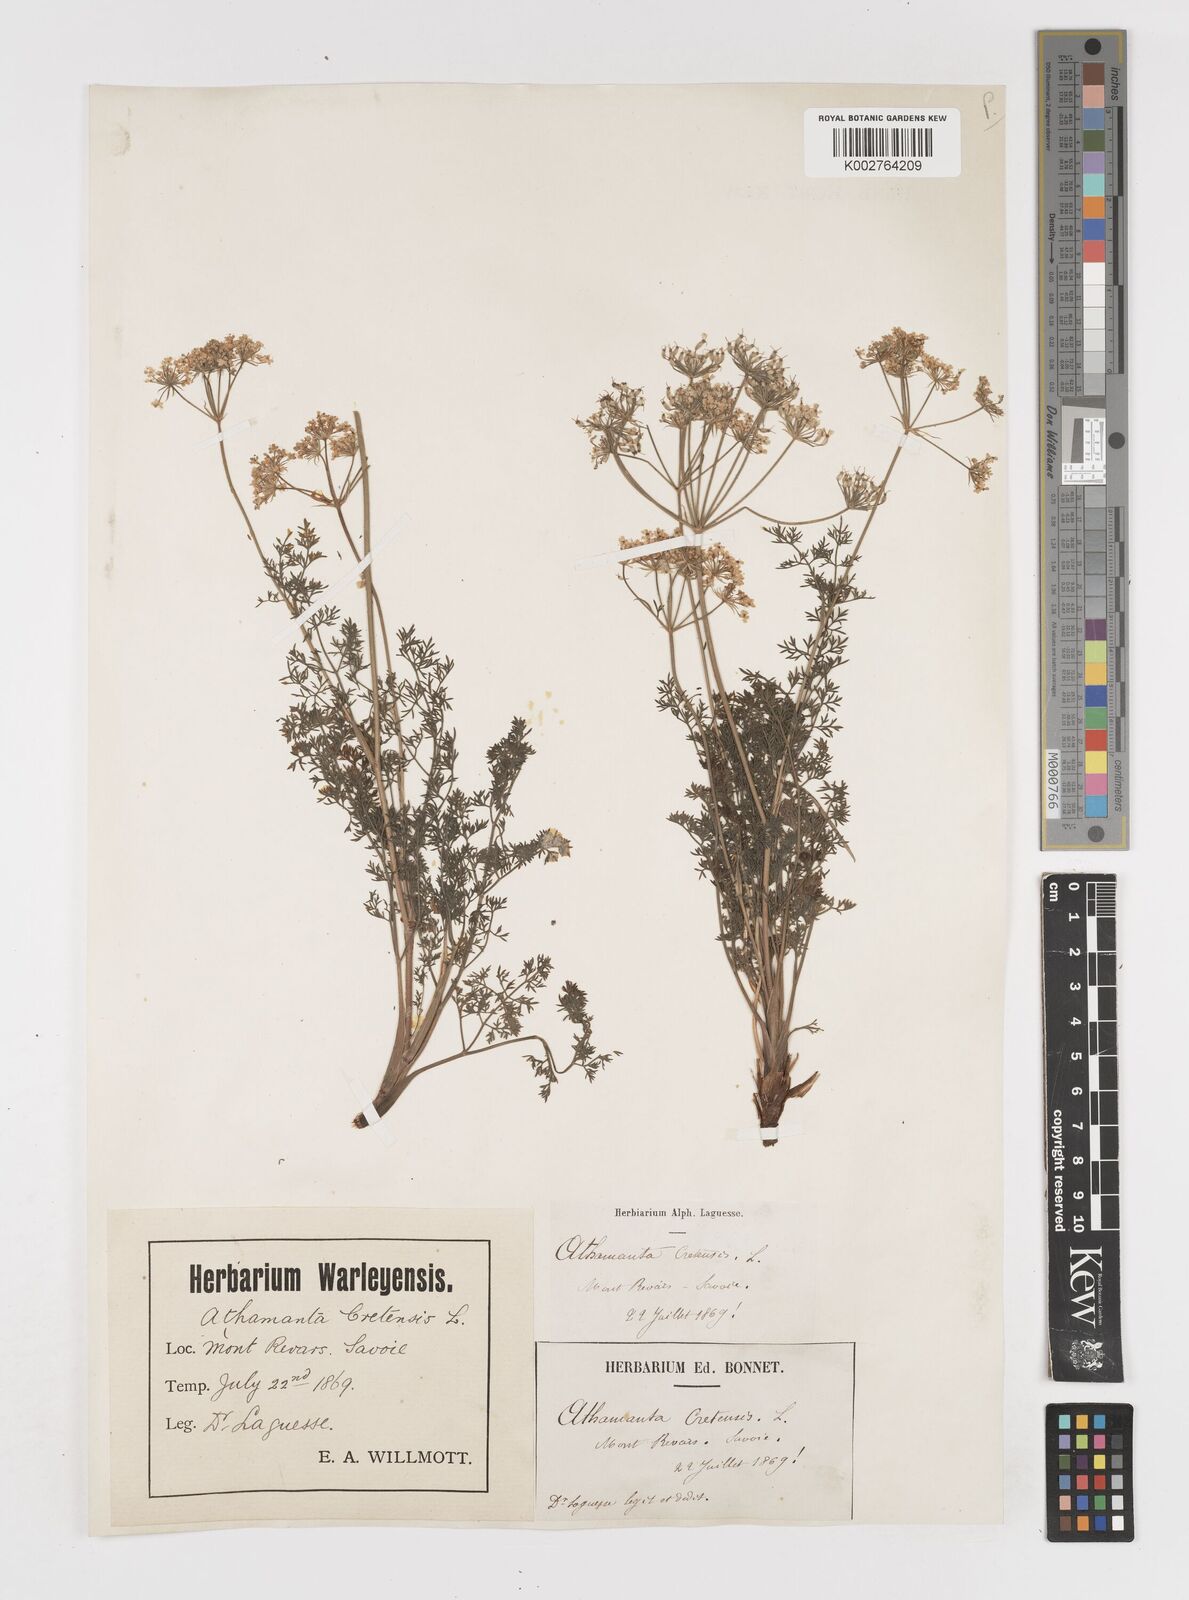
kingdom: Plantae
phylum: Tracheophyta
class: Magnoliopsida
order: Apiales
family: Apiaceae
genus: Athamanta
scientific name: Athamanta cretensis
